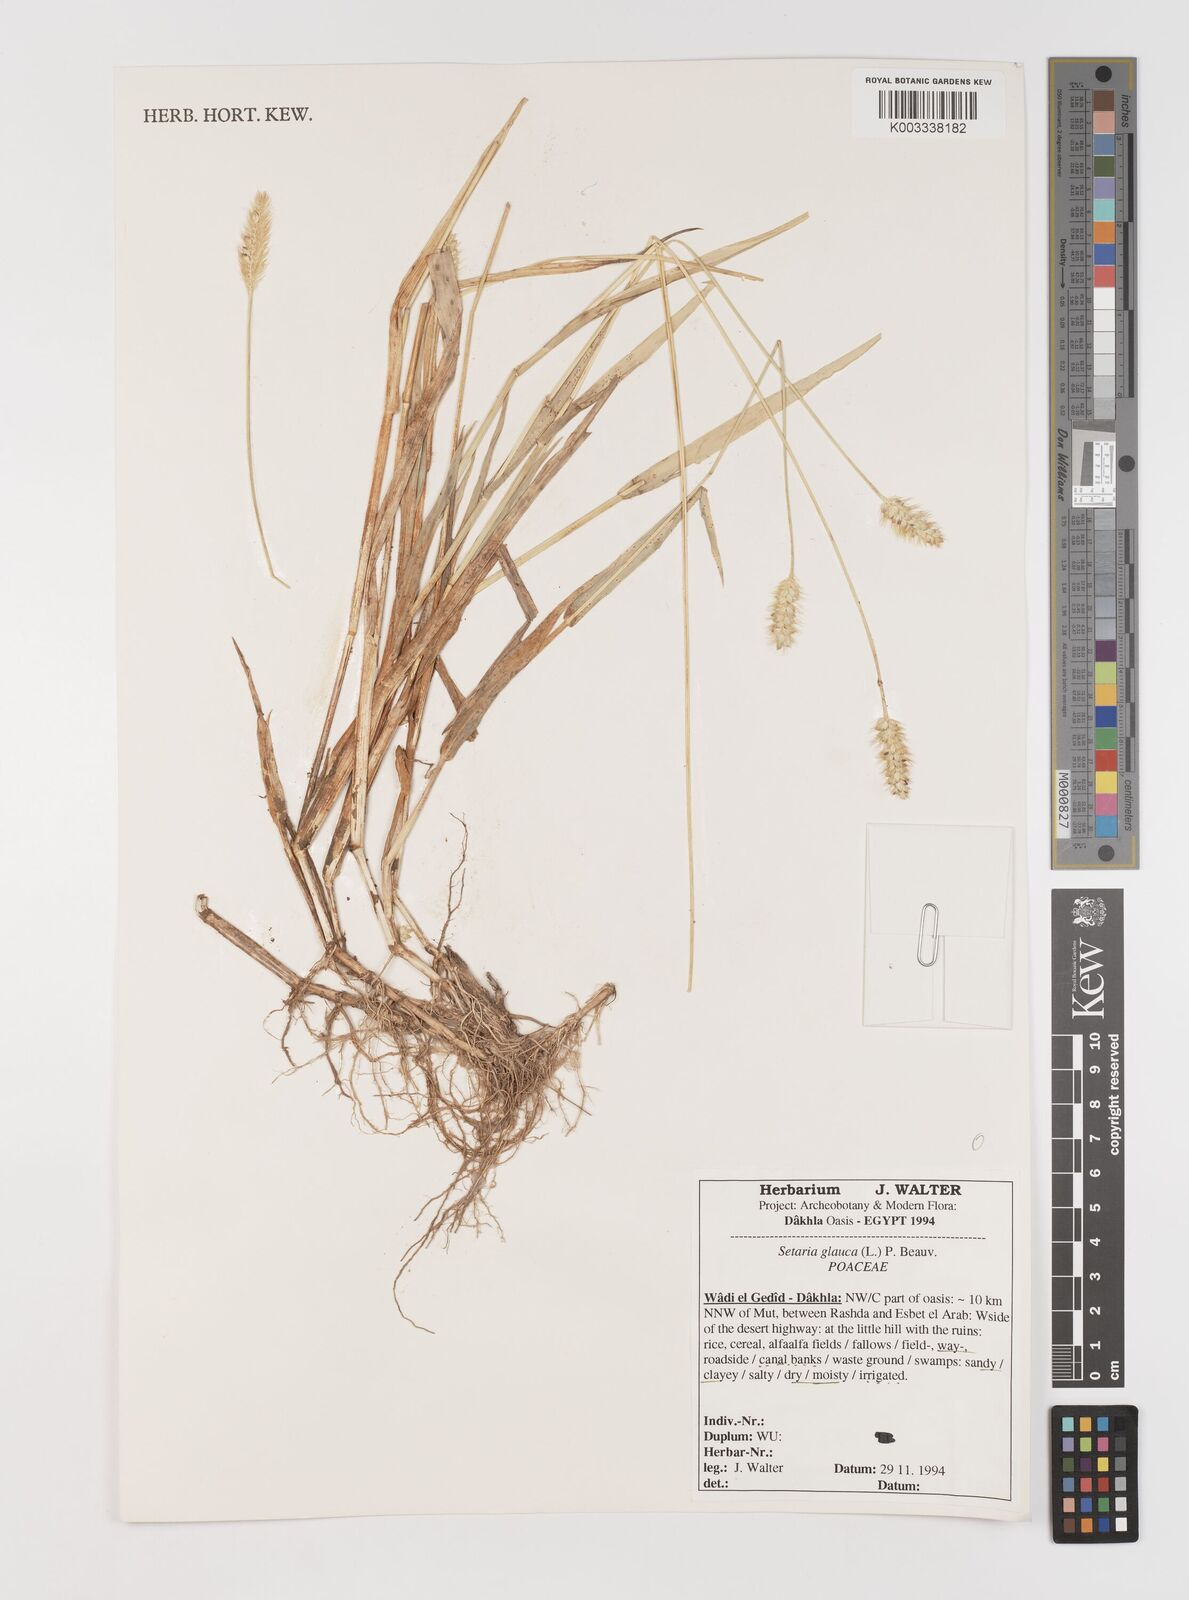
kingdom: Plantae
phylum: Tracheophyta
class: Liliopsida
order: Poales
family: Poaceae
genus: Setaria
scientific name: Setaria pumila
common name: Yellow bristle-grass
